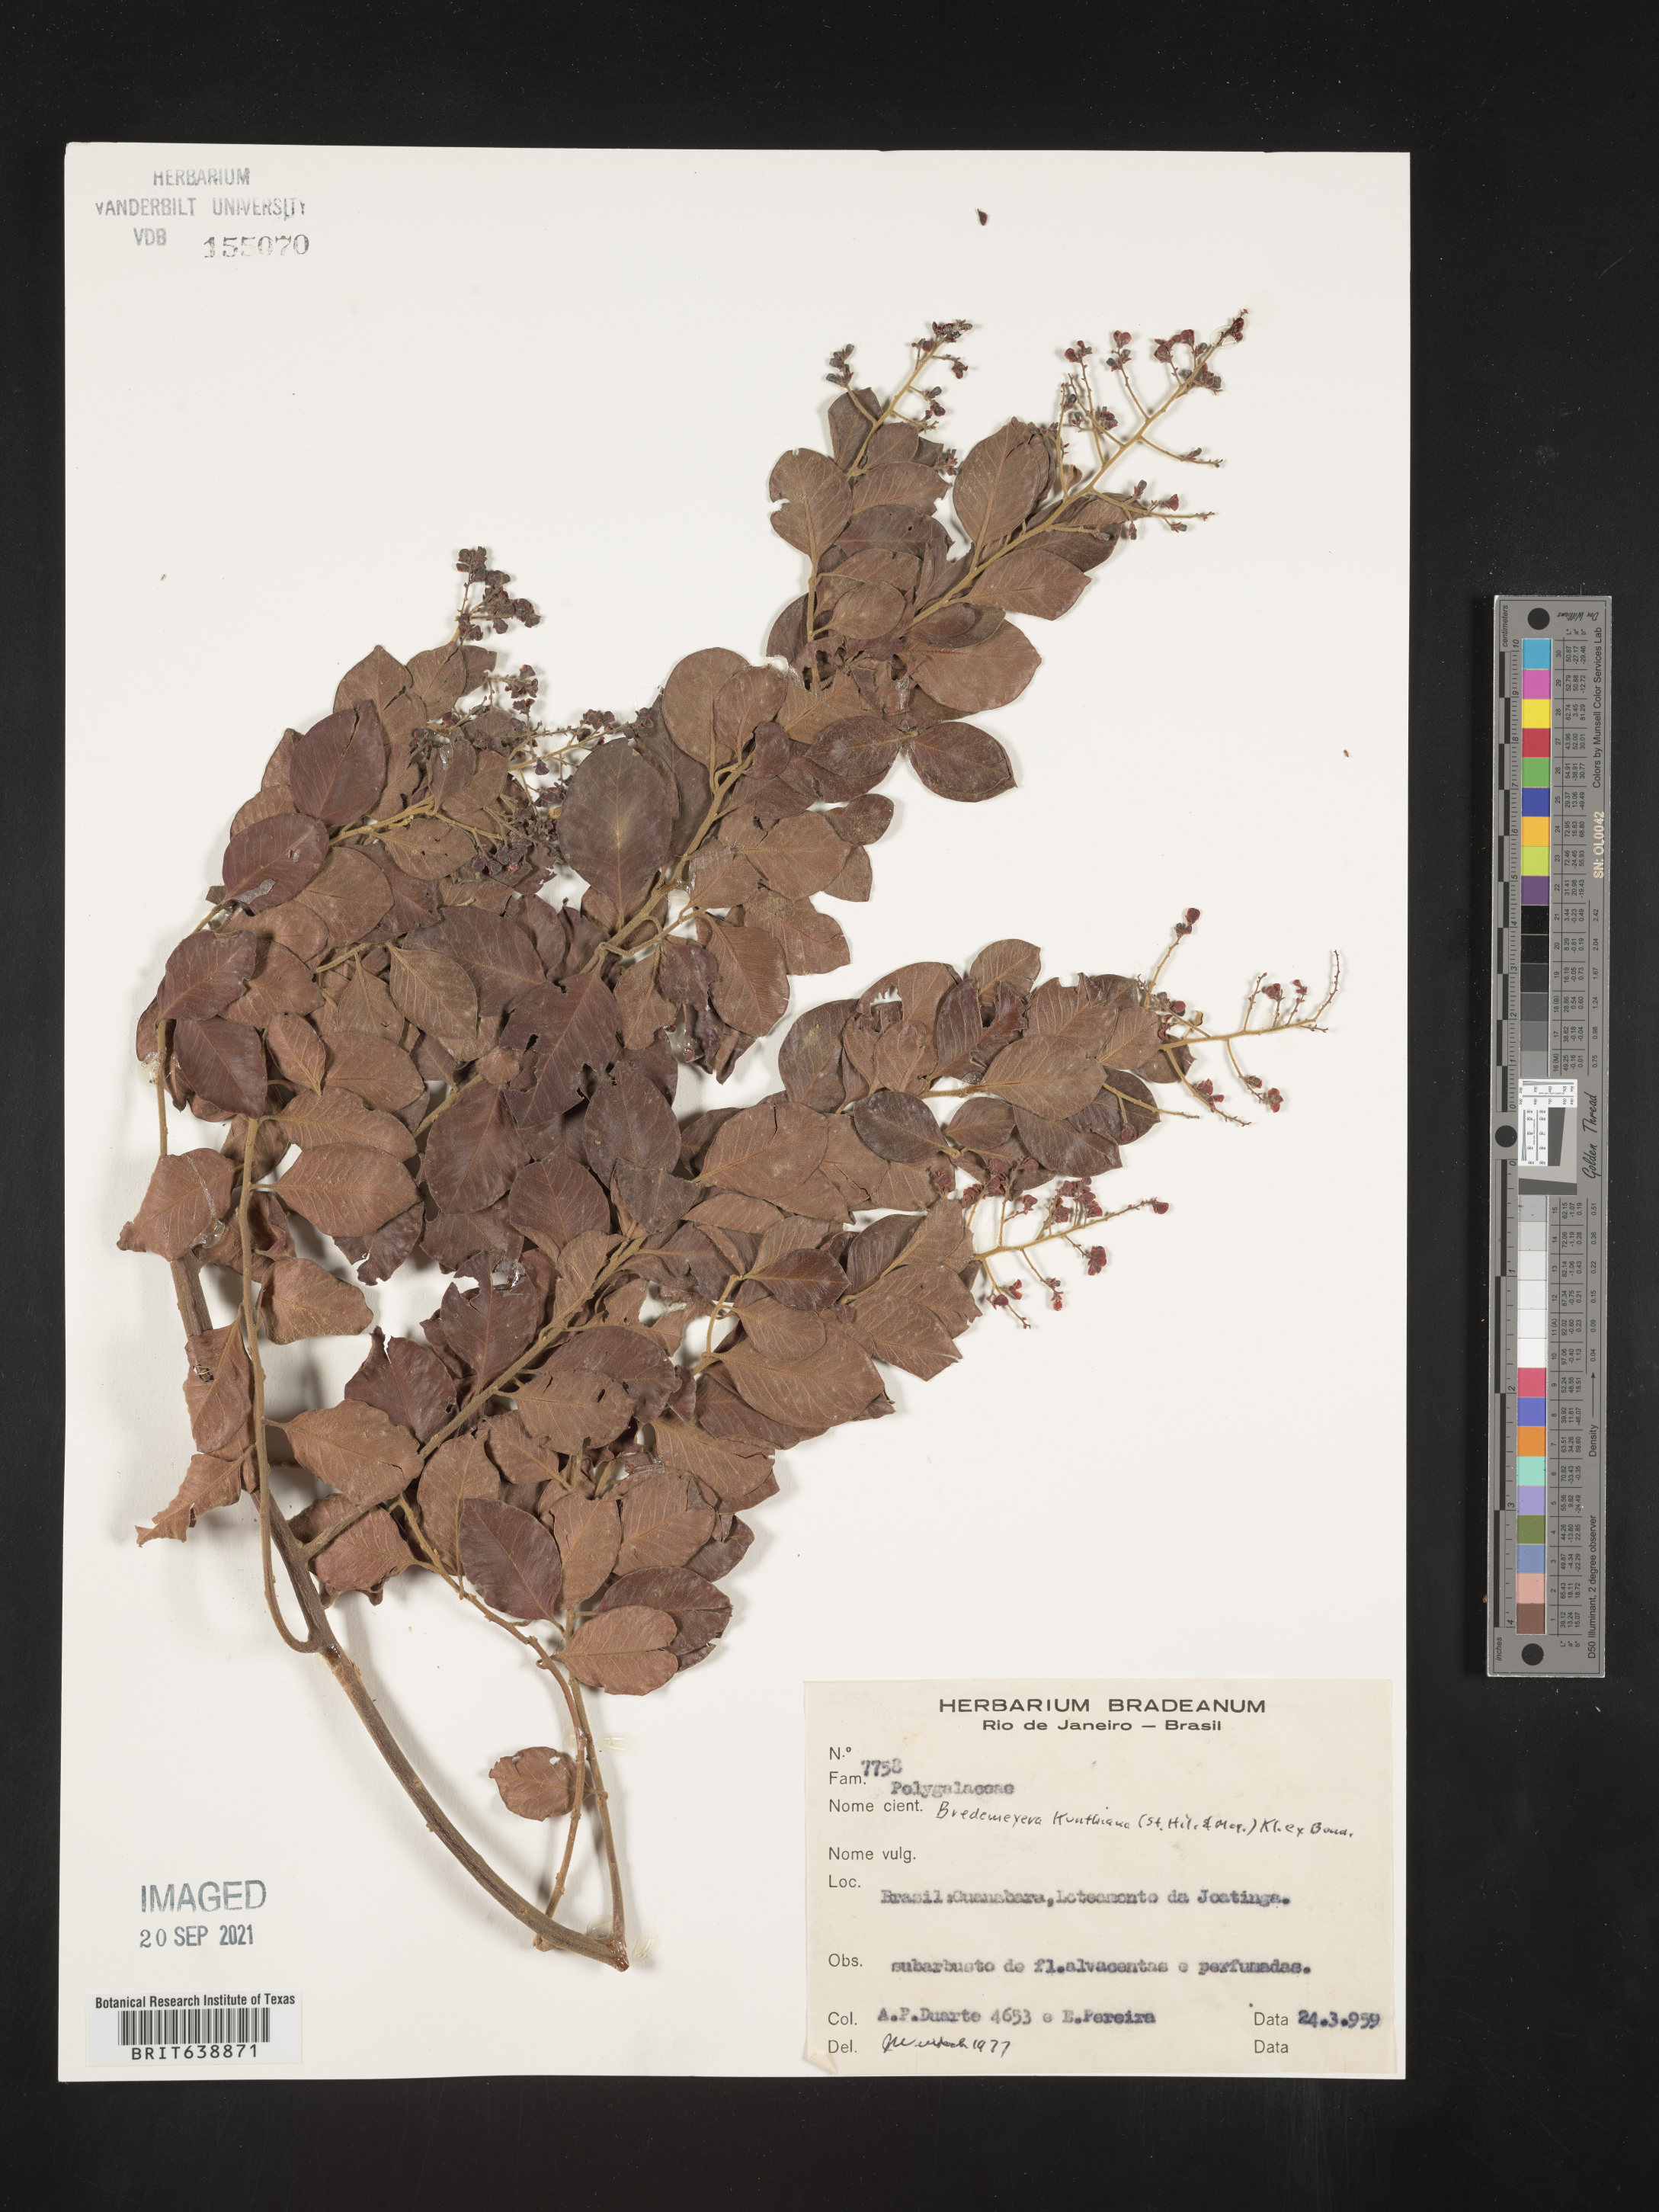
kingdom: Plantae
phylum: Tracheophyta
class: Magnoliopsida
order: Fabales
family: Polygalaceae
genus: Bredemeyera
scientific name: Bredemeyera
